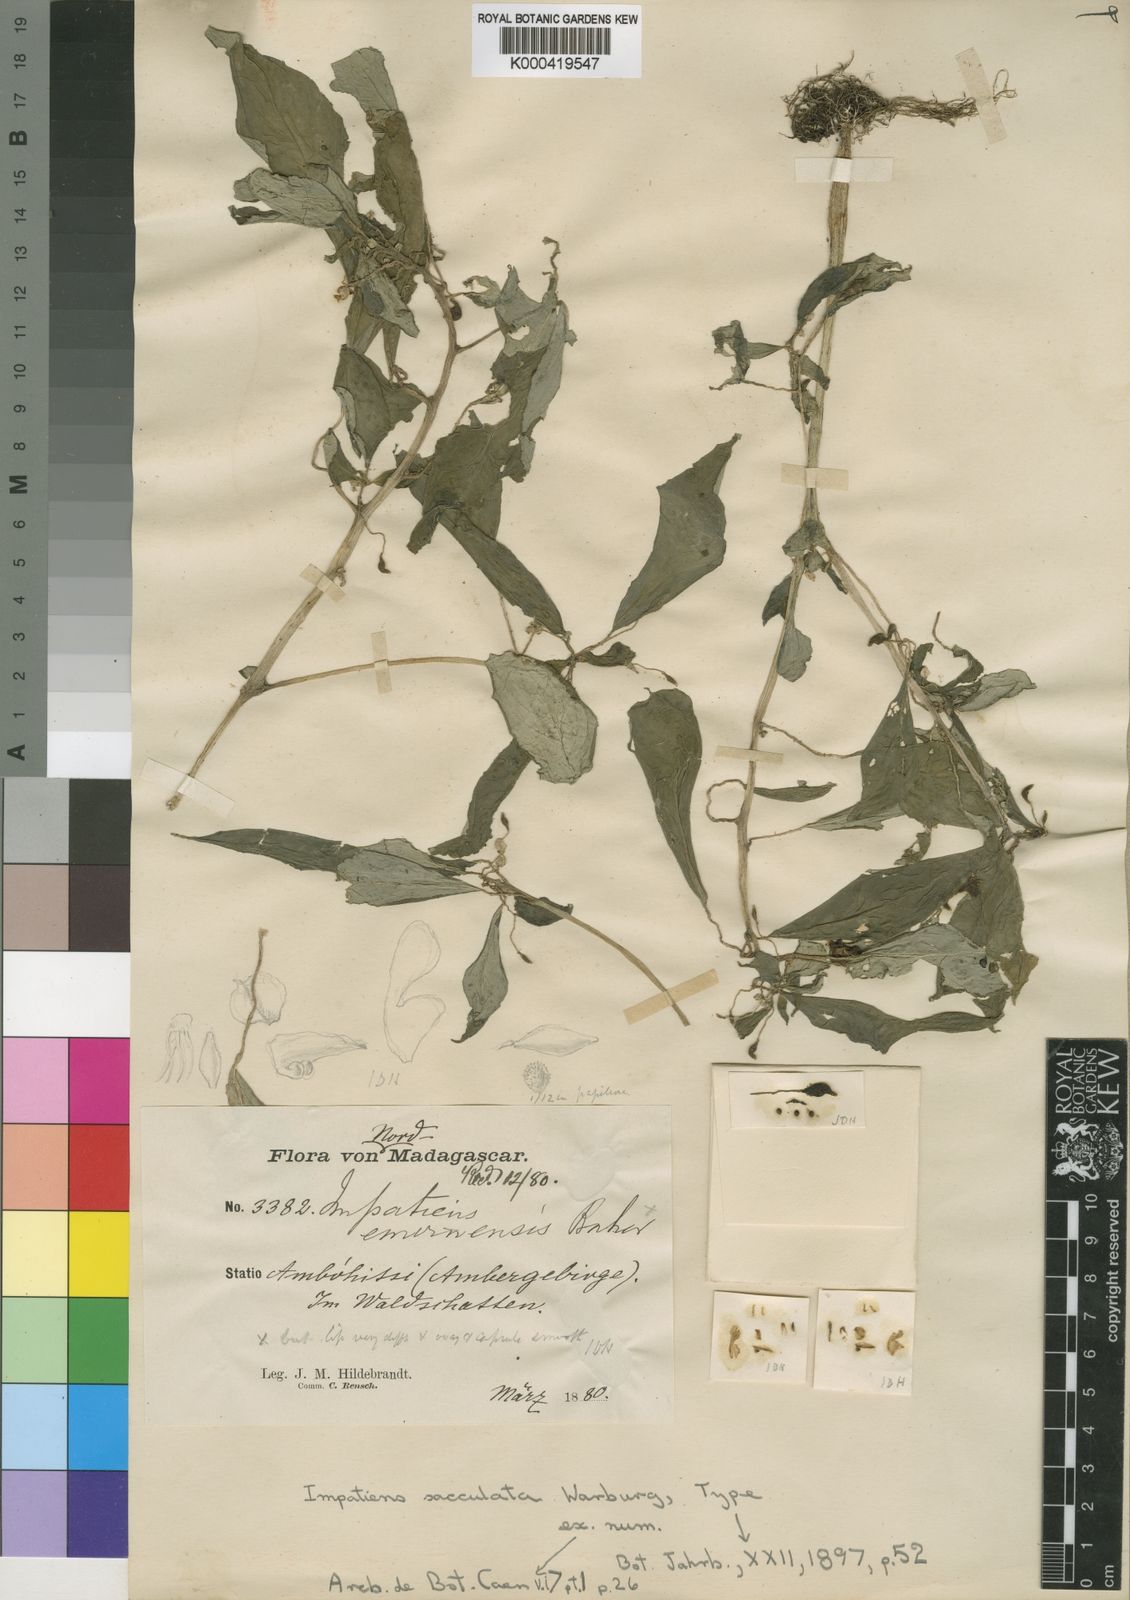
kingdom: Plantae
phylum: Tracheophyta
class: Magnoliopsida
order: Ericales
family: Balsaminaceae
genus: Impatiens
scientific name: Impatiens sacculata
